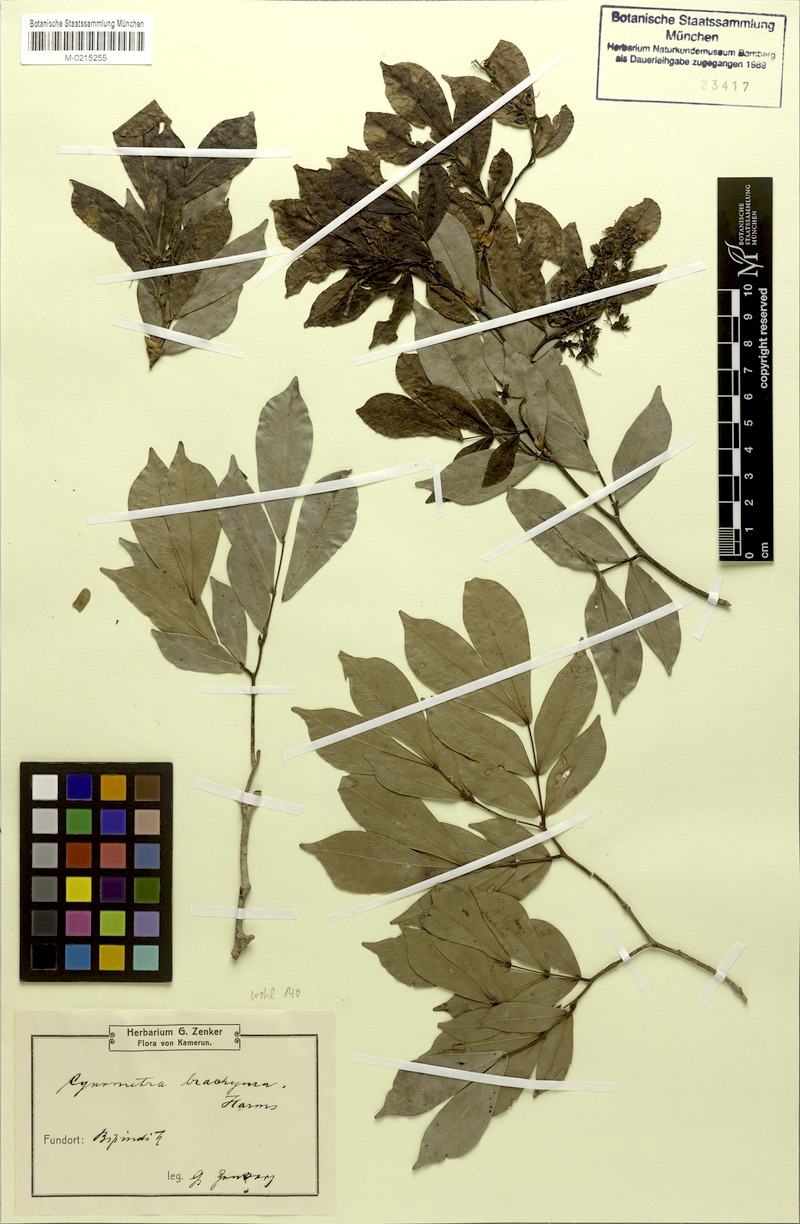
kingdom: Plantae
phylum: Tracheophyta
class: Magnoliopsida
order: Fabales
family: Fabaceae
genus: Hymenostegia
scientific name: Hymenostegia brachyura
